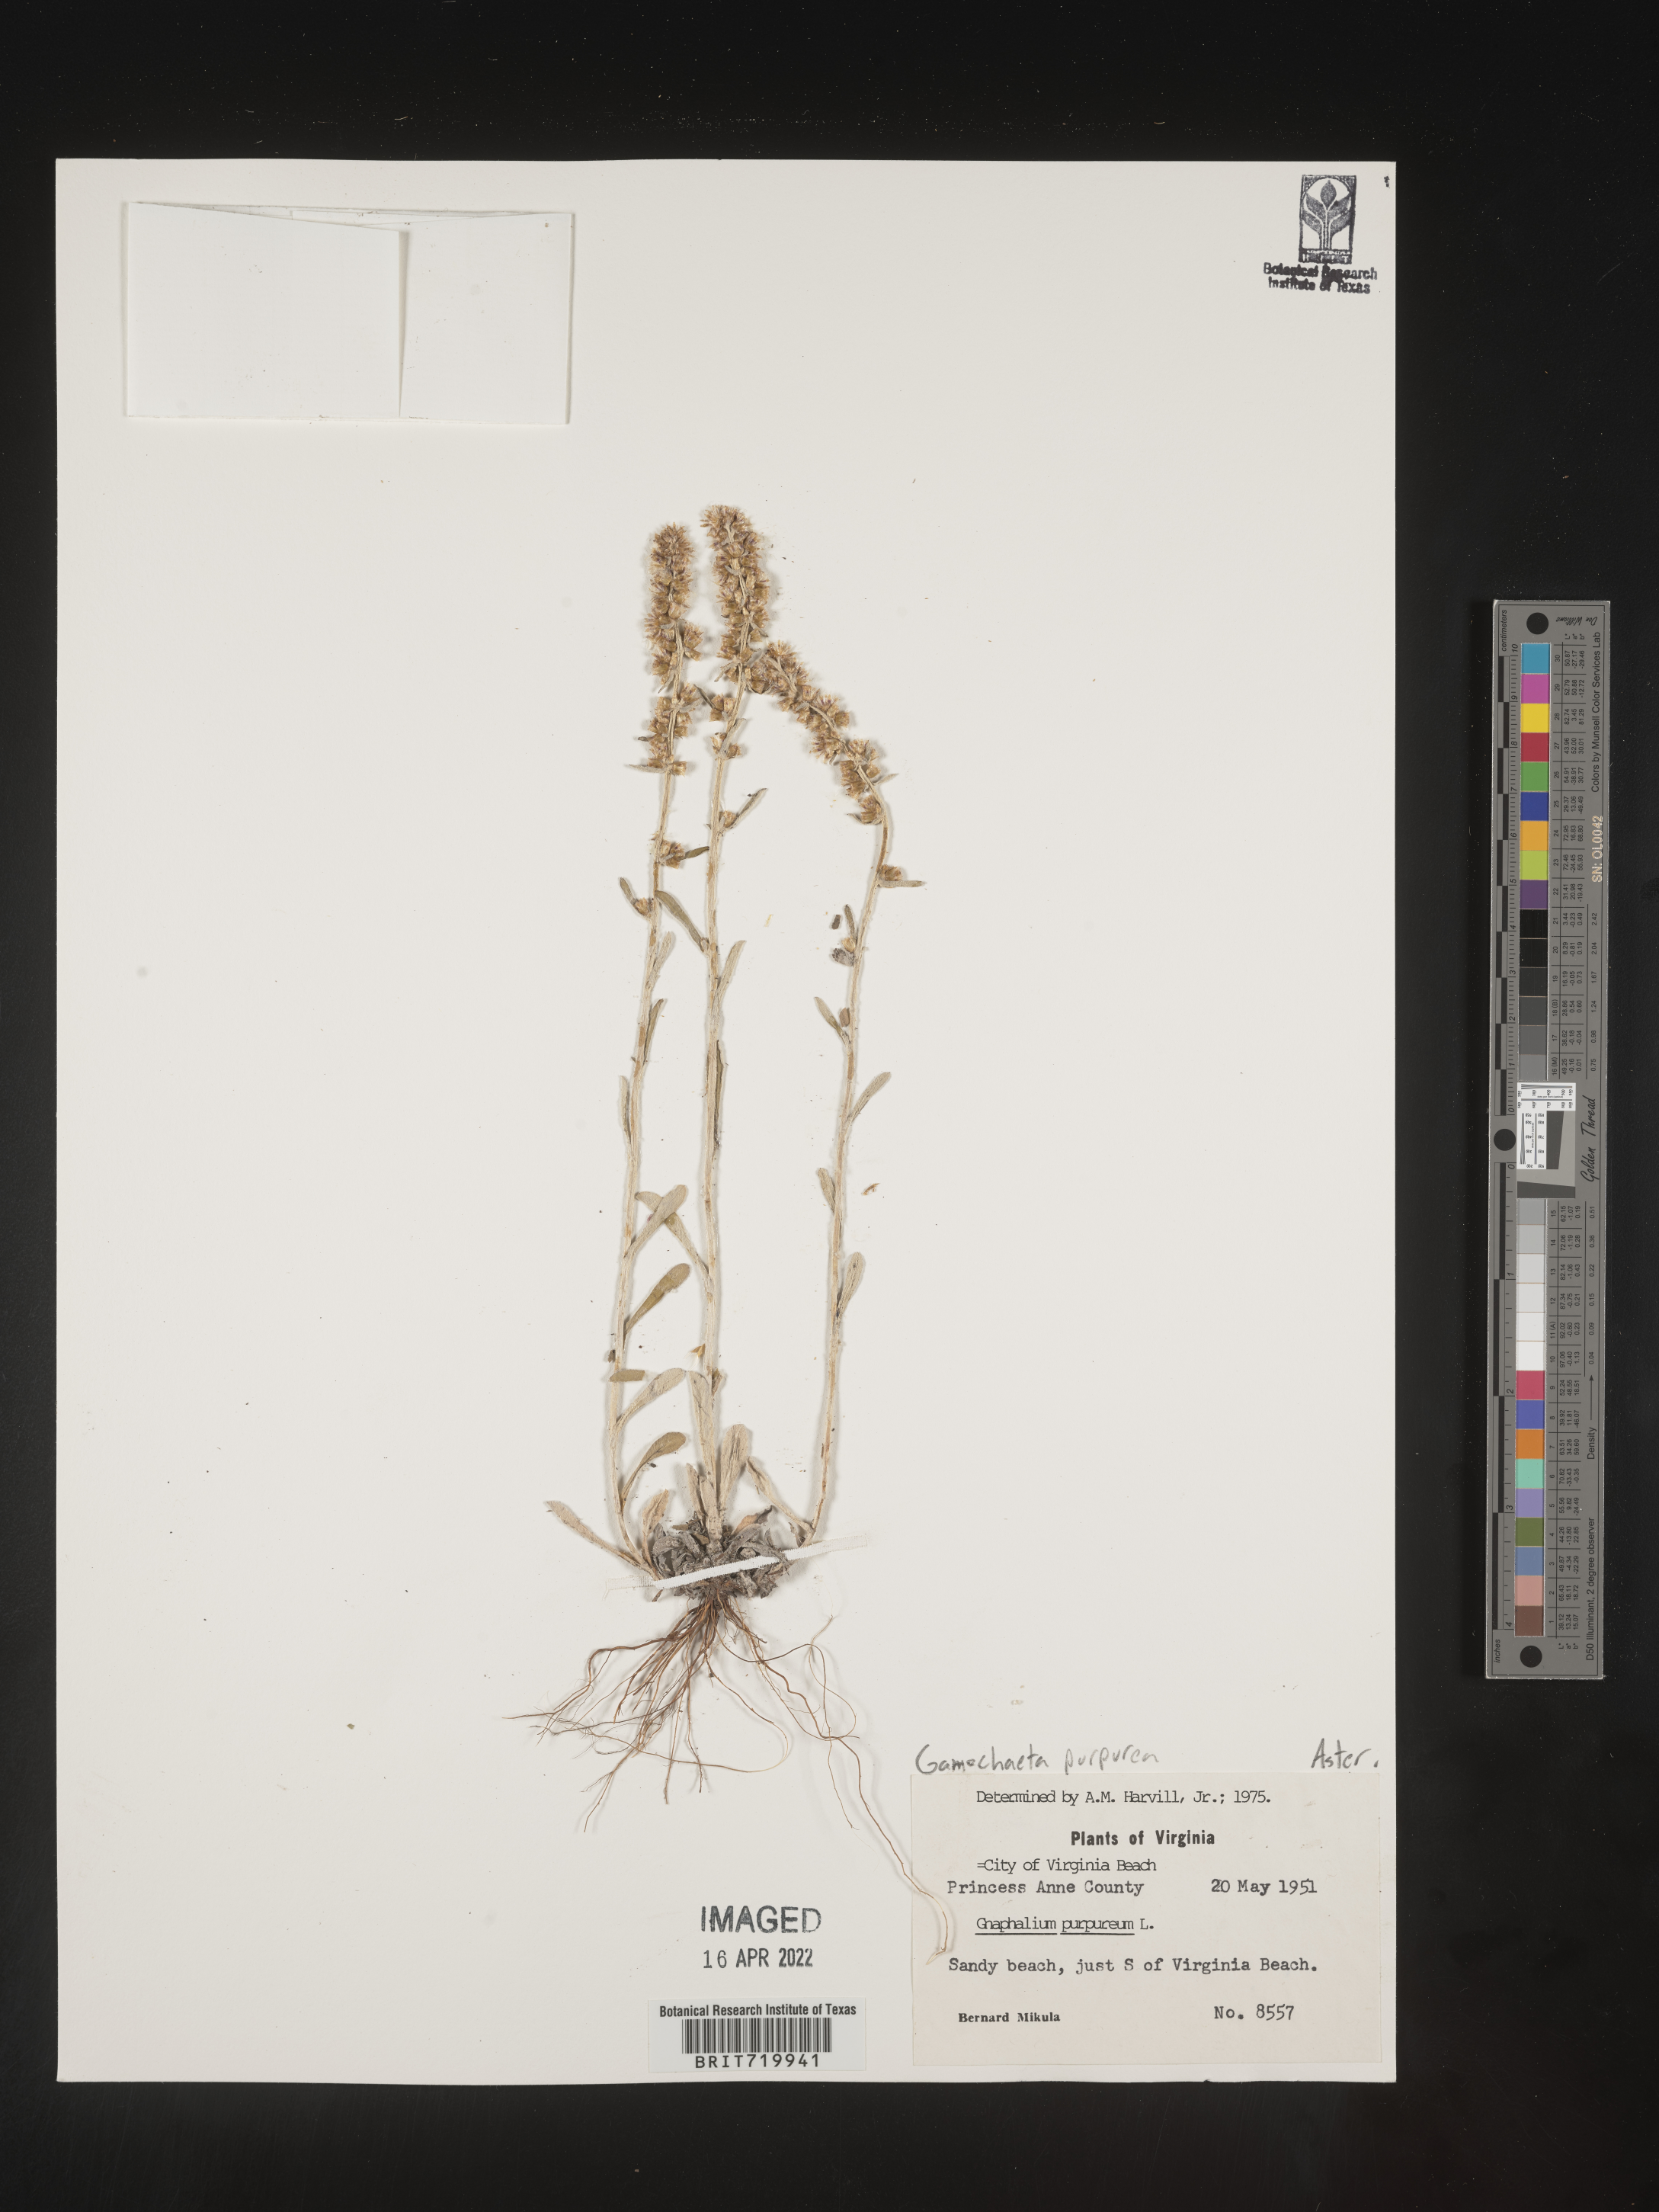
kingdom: Plantae
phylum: Tracheophyta
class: Magnoliopsida
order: Asterales
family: Asteraceae
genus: Gamochaeta
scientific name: Gamochaeta purpurea
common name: Purple cudweed
